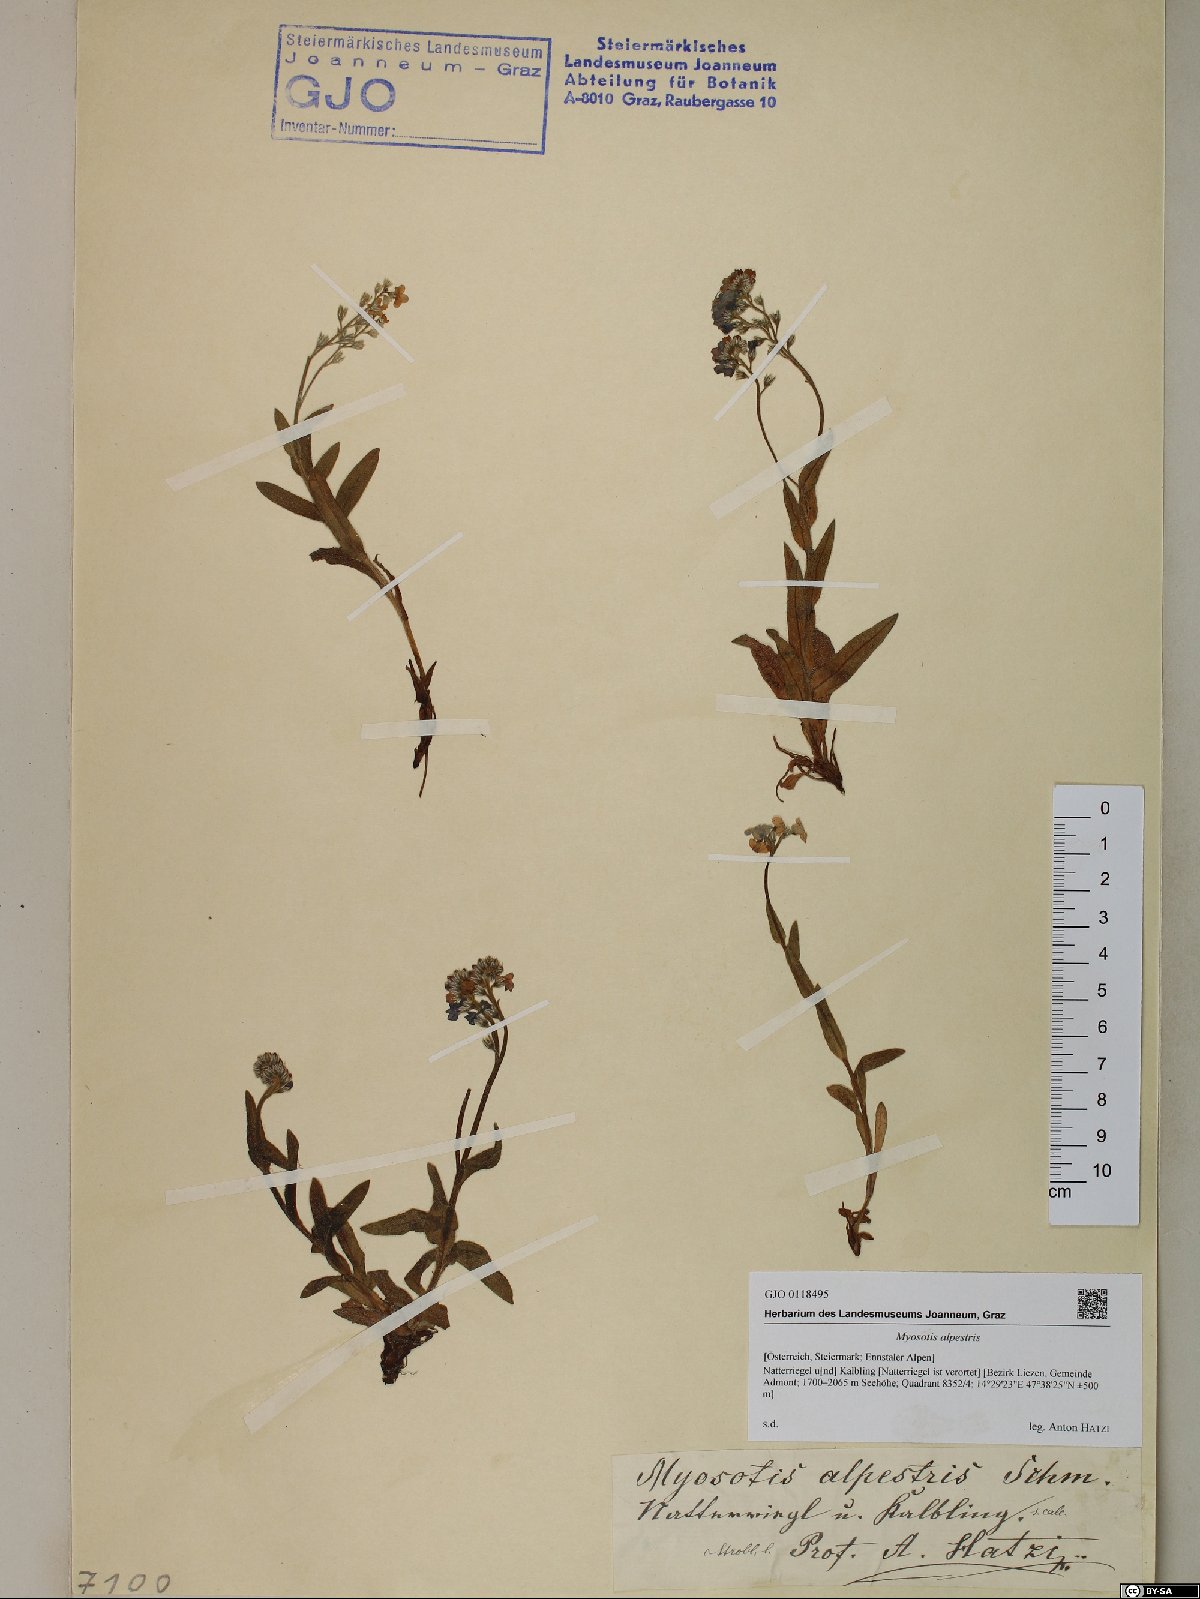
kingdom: Plantae
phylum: Tracheophyta
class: Magnoliopsida
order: Boraginales
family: Boraginaceae
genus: Myosotis
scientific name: Myosotis alpestris
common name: Alpine forget-me-not
